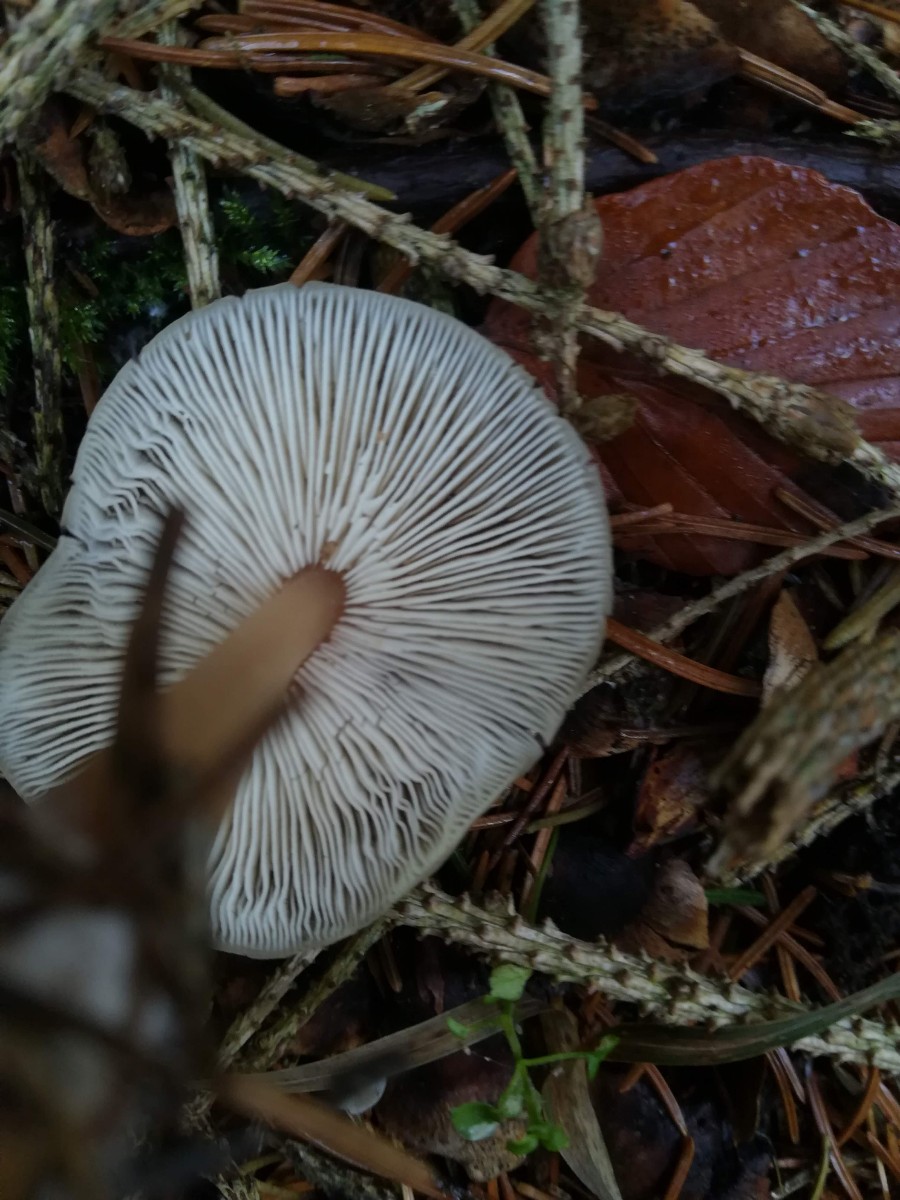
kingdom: Fungi
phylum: Basidiomycota
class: Agaricomycetes
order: Agaricales
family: Omphalotaceae
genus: Rhodocollybia
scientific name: Rhodocollybia asema
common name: horngrå fladhat
